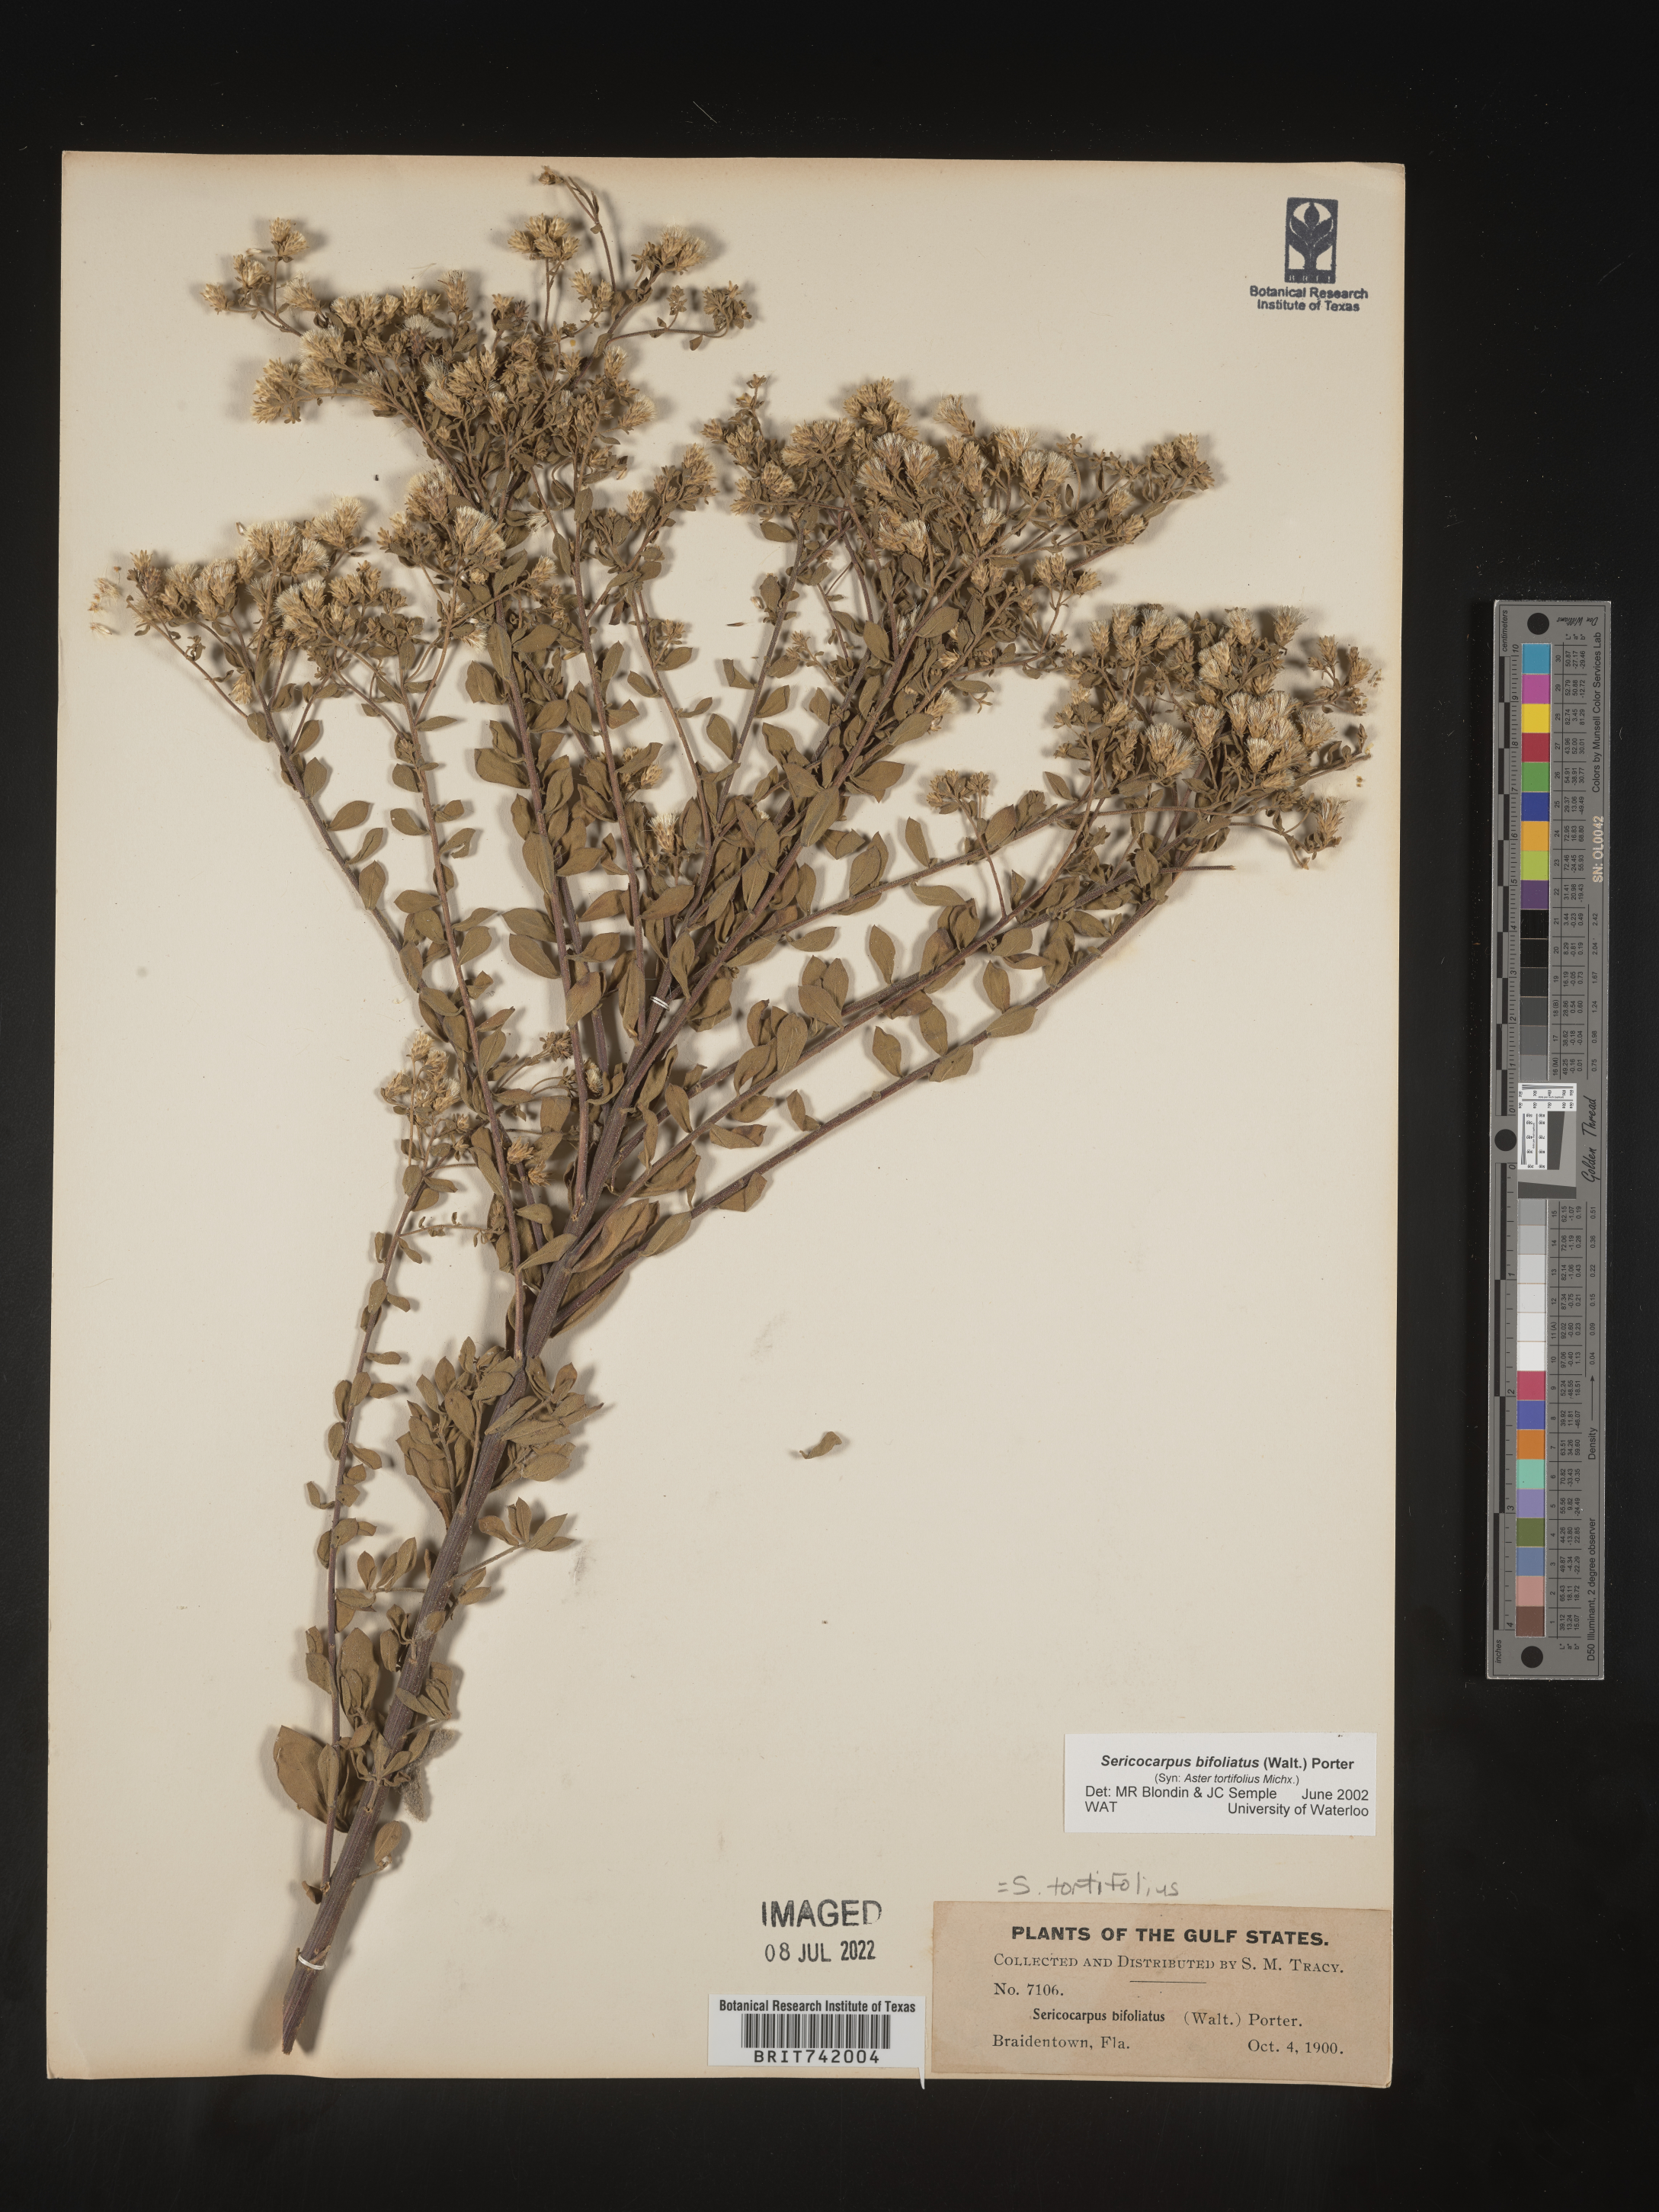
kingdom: Plantae
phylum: Tracheophyta
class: Magnoliopsida
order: Asterales
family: Asteraceae
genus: Sericocarpus
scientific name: Sericocarpus tortifolius
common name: Dixie aster
